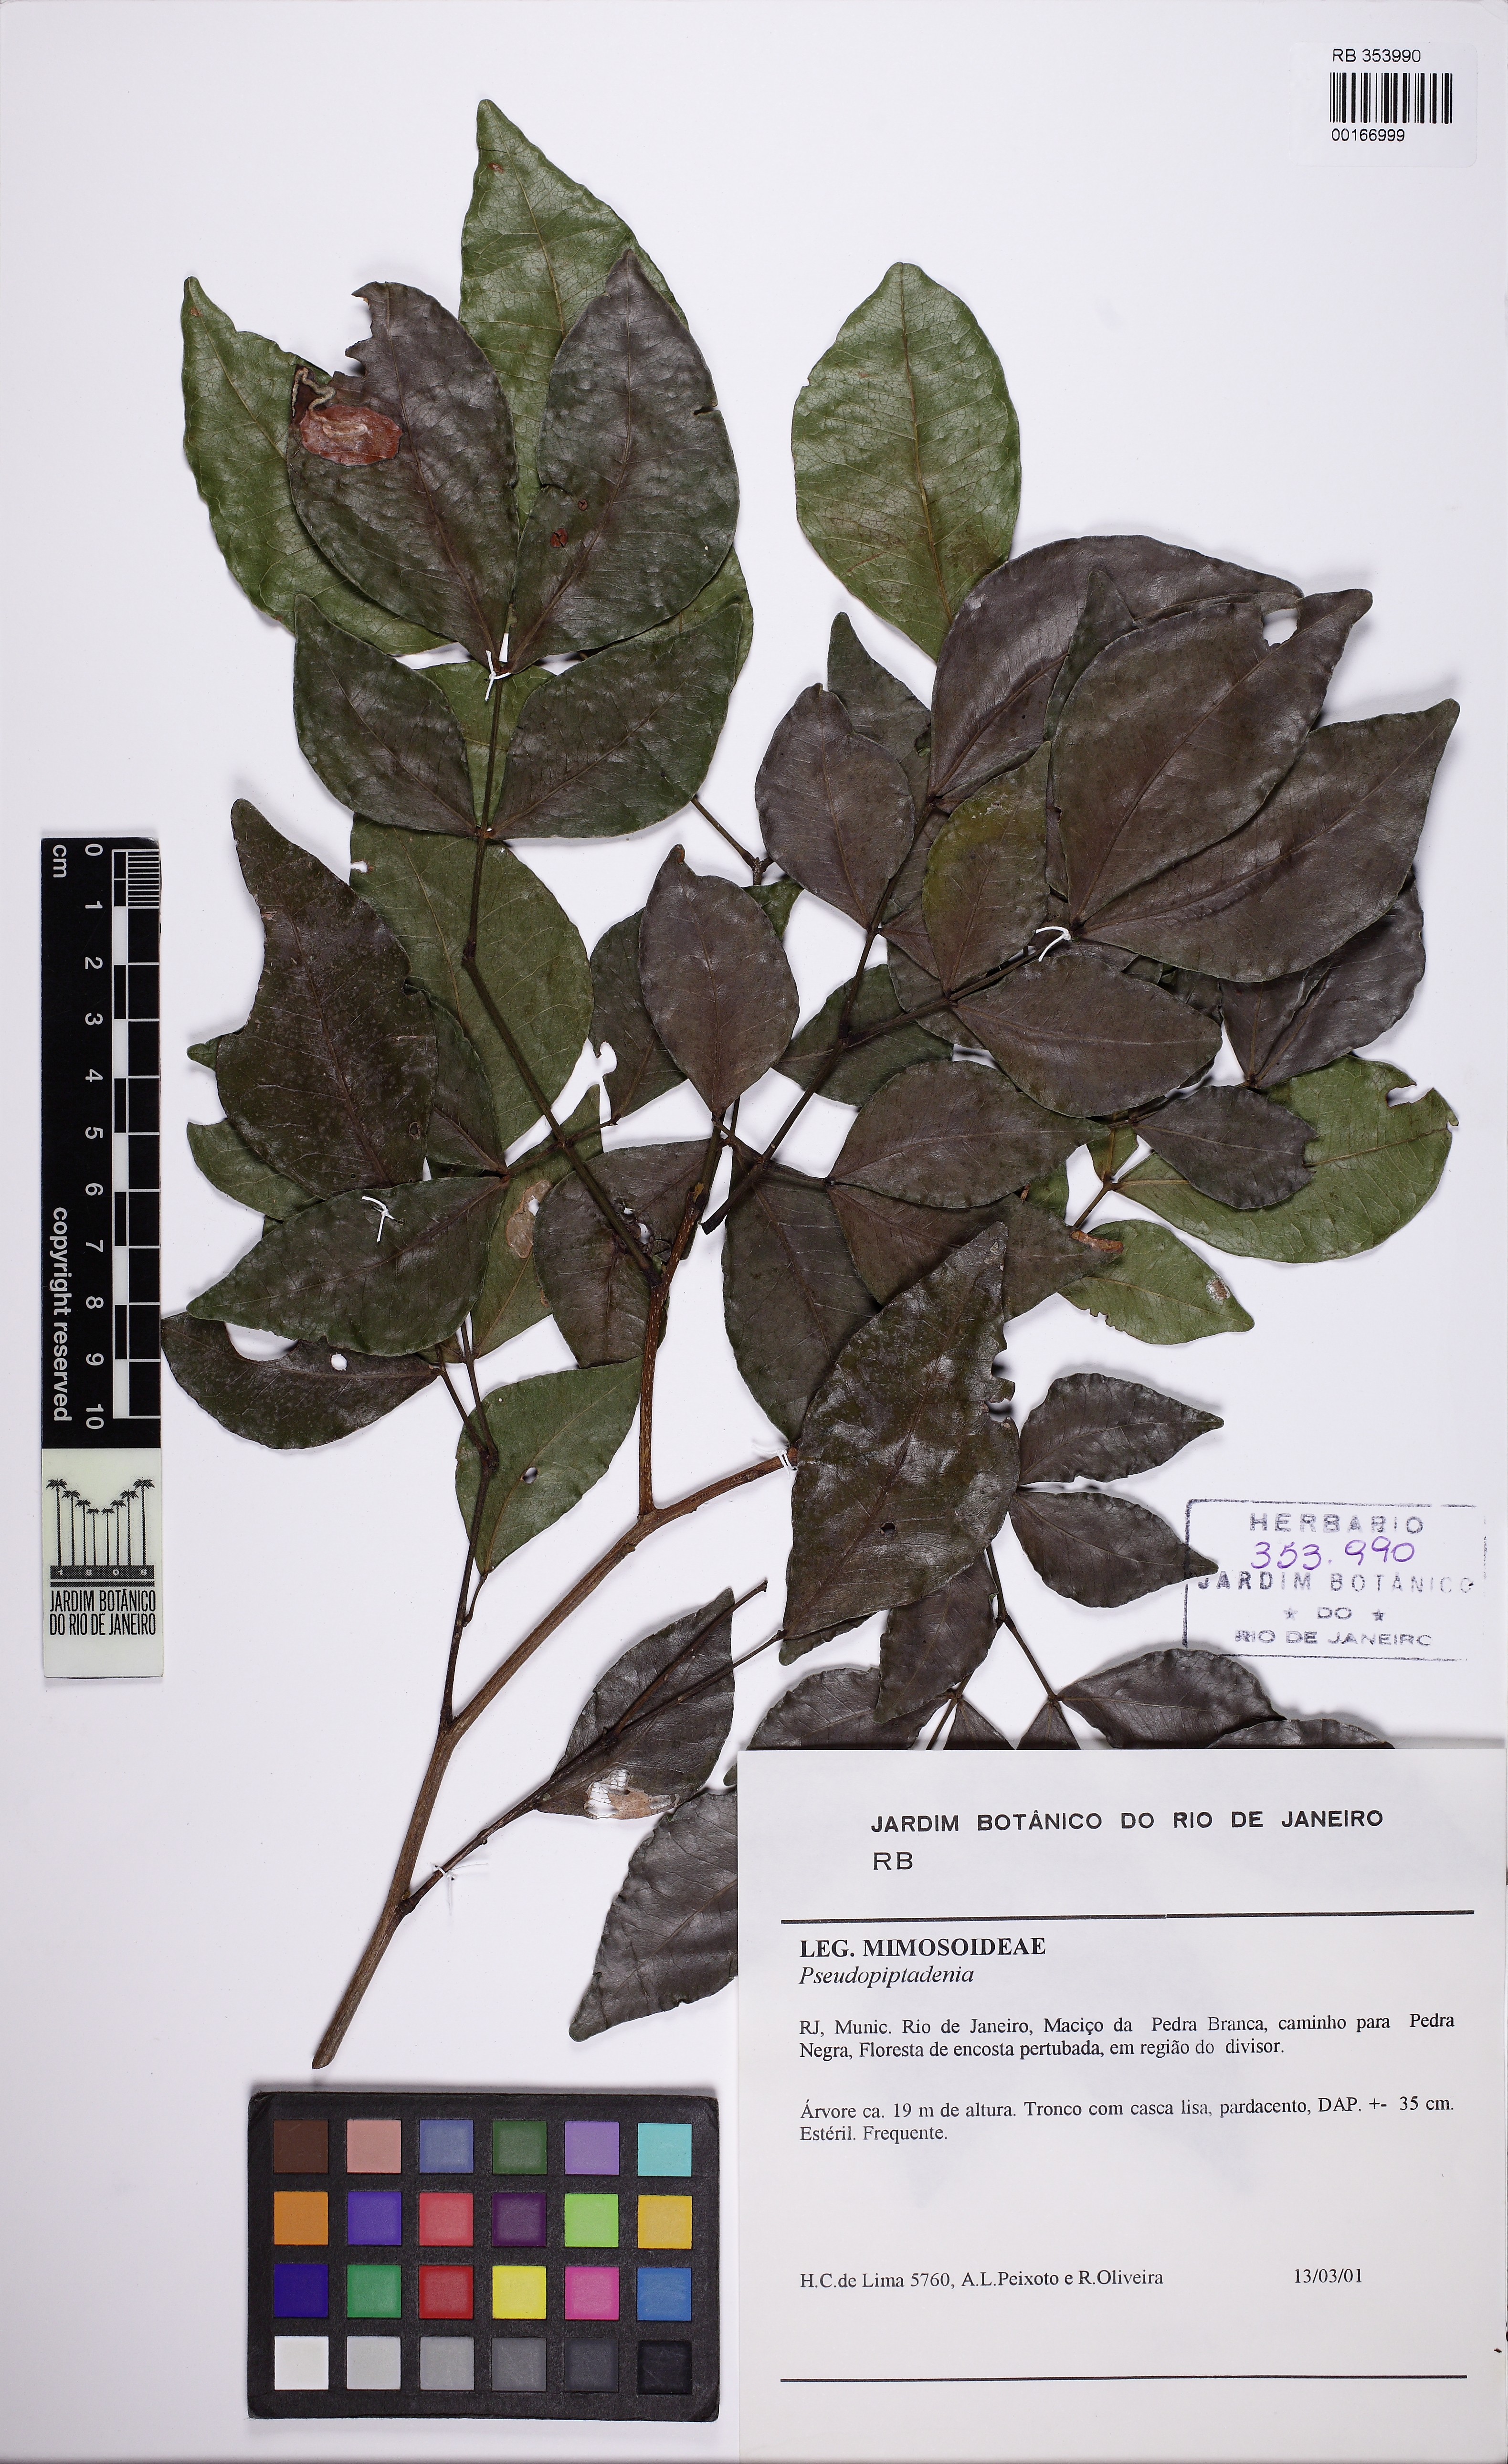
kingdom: Plantae
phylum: Tracheophyta
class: Magnoliopsida
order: Fabales
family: Fabaceae
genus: Pseudopiptadenia
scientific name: Pseudopiptadenia
